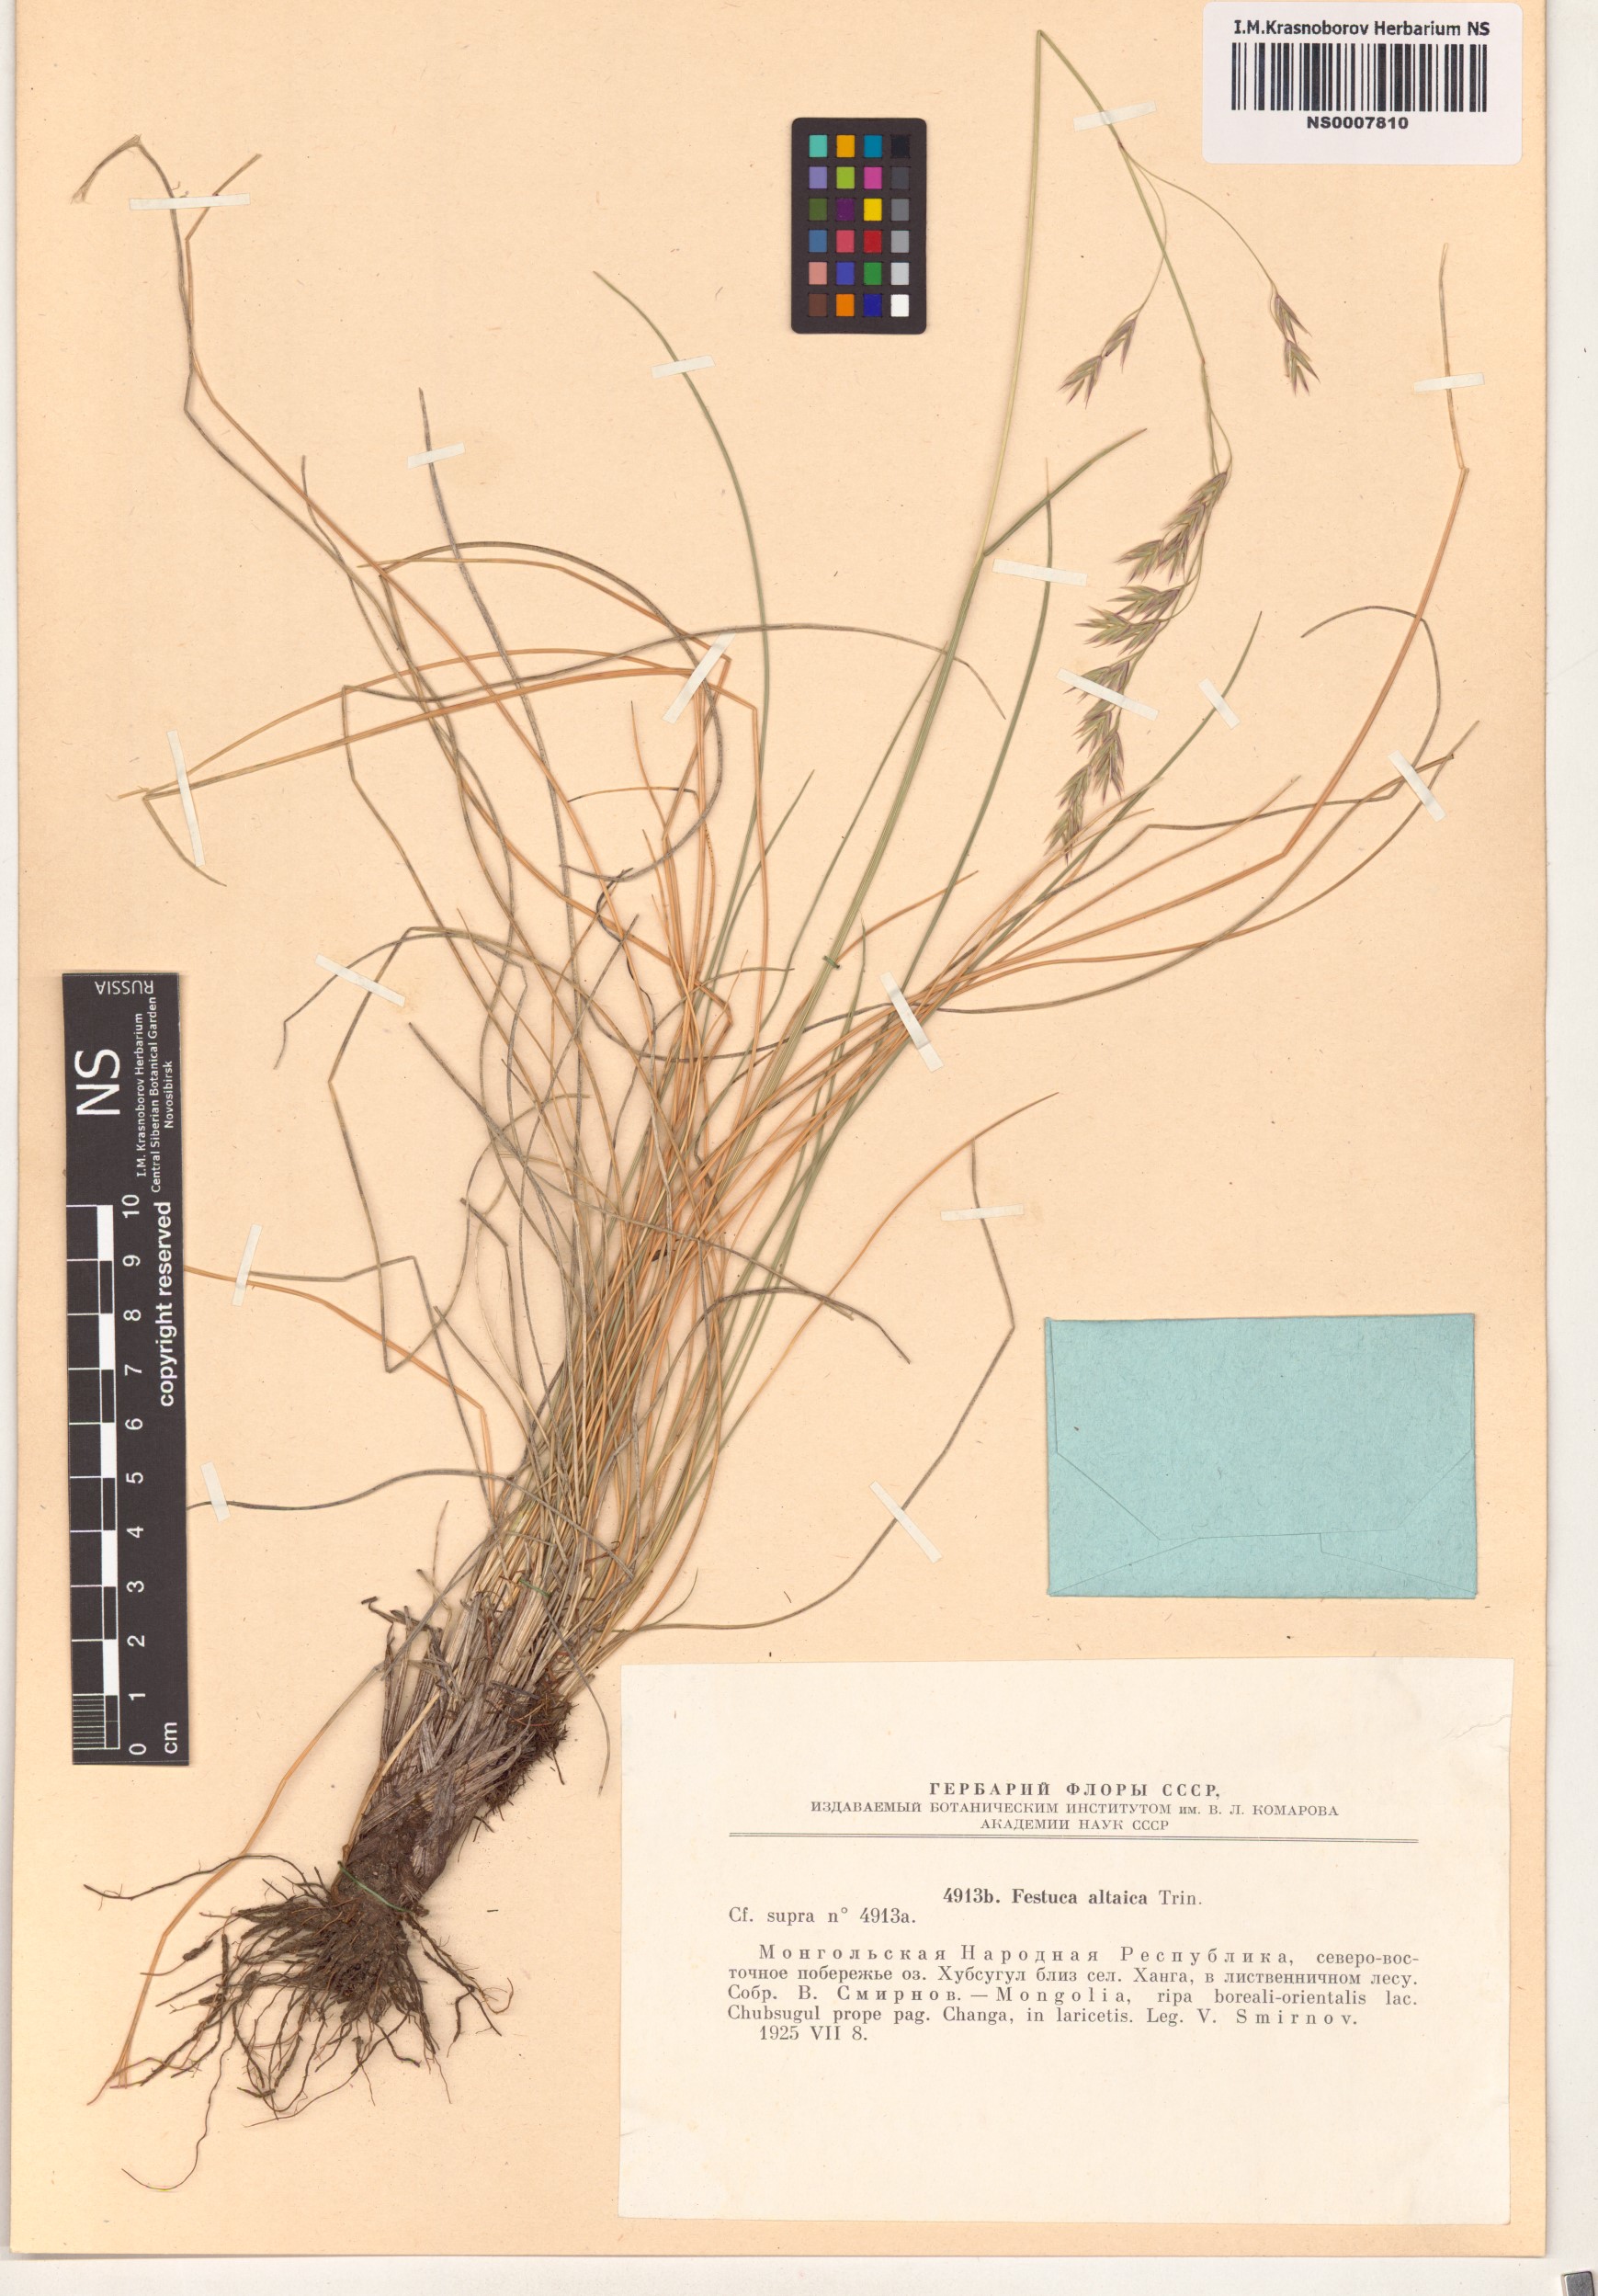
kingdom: Plantae
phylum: Tracheophyta
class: Liliopsida
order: Poales
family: Poaceae
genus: Festuca
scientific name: Festuca altaica
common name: Northern rough fescue
